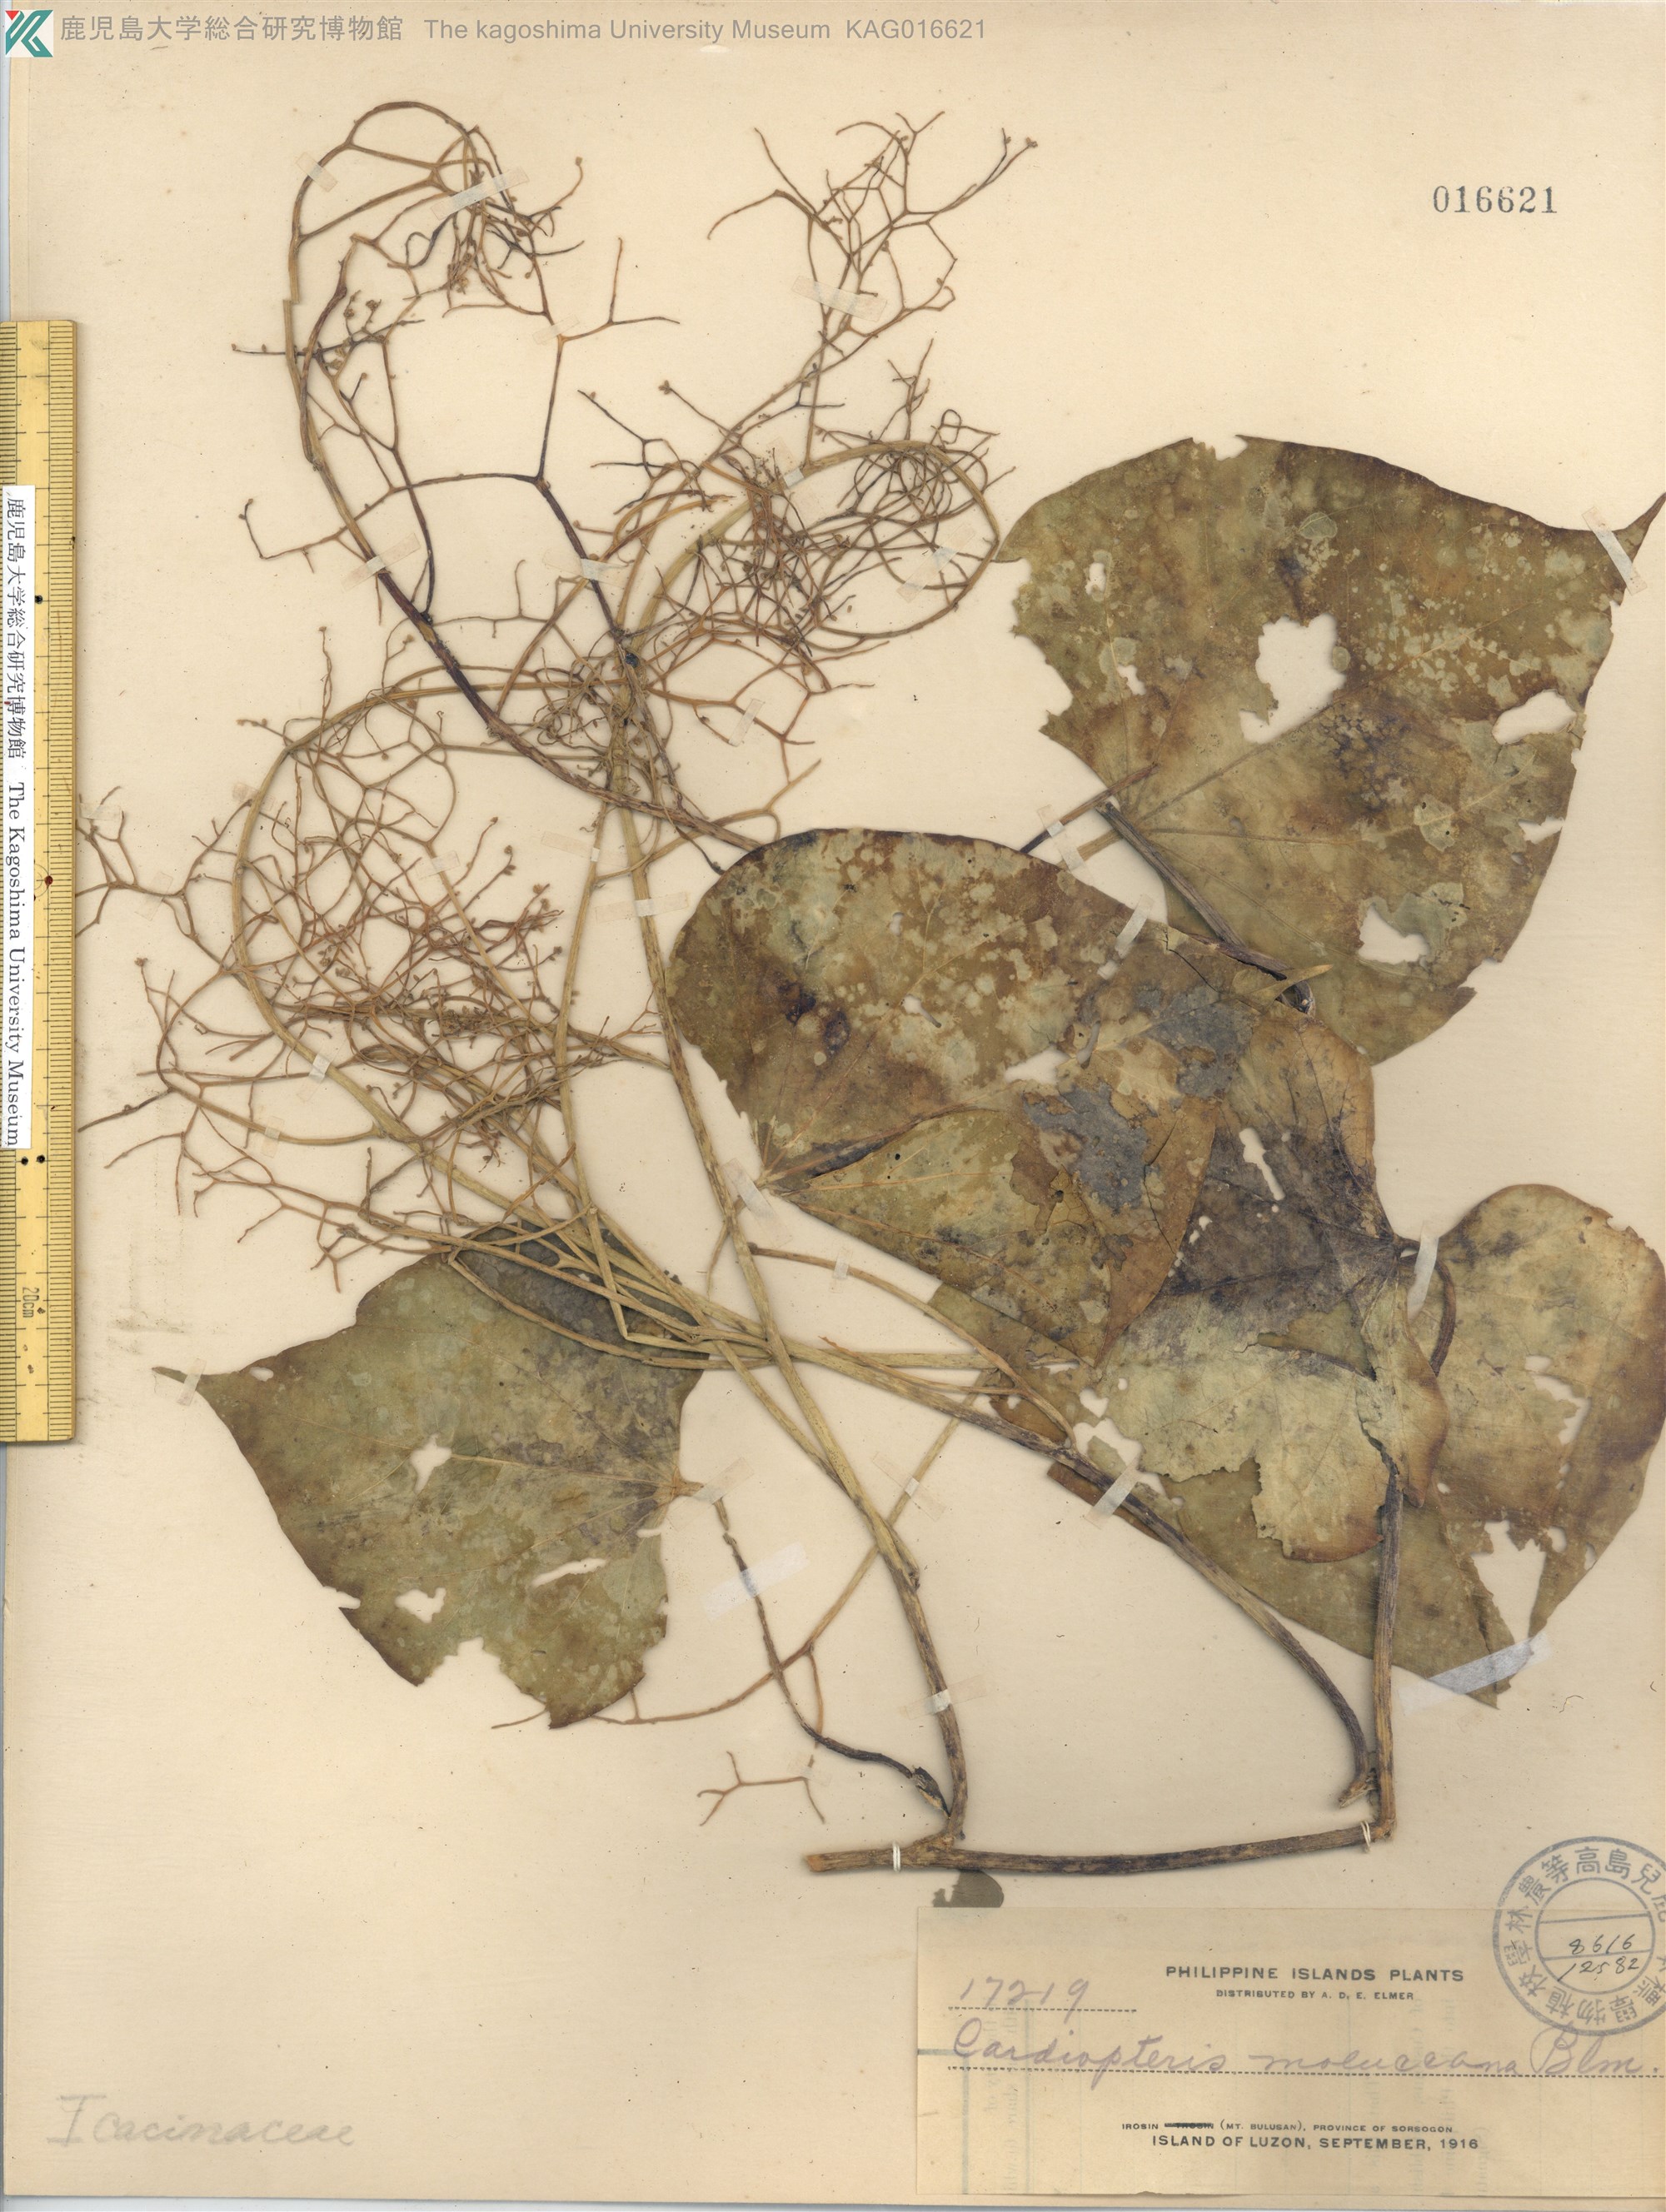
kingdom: Plantae
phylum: Tracheophyta
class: Magnoliopsida
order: Cardiopteridales
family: Cardiopteridaceae
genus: Cardiopteris
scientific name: Cardiopteris moluccana
